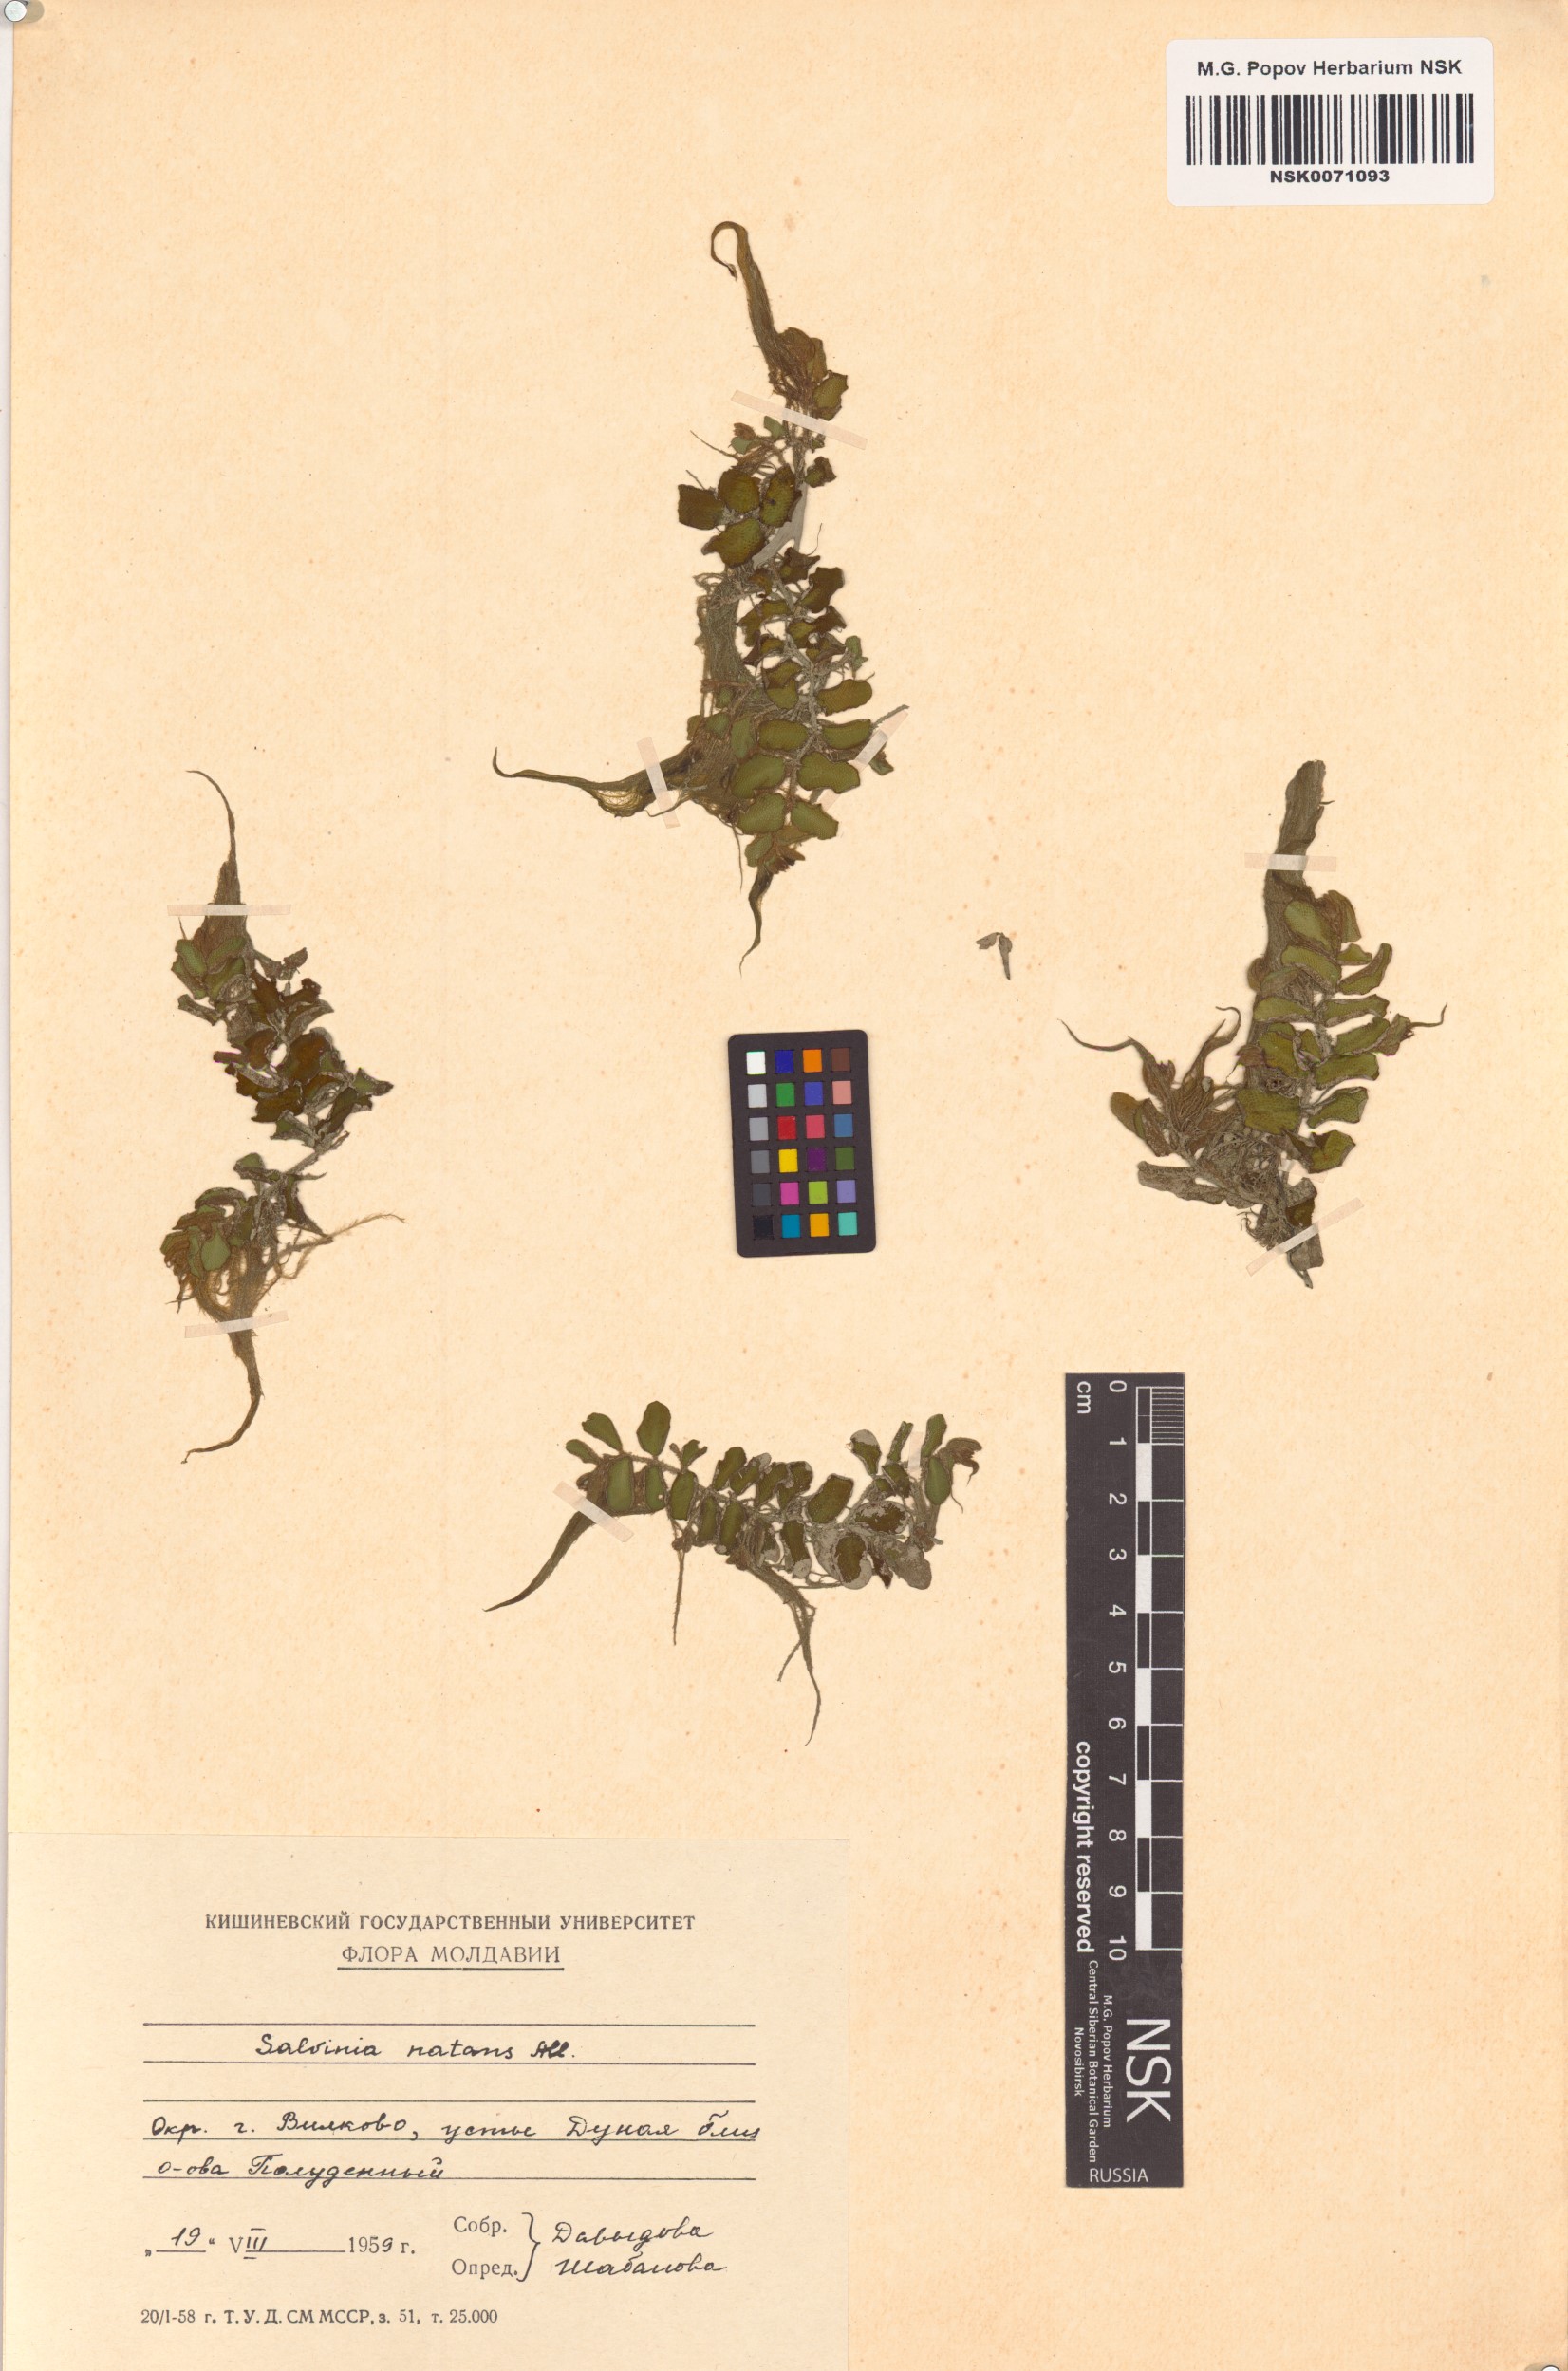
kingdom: Plantae
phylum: Tracheophyta
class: Polypodiopsida
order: Salviniales
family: Salviniaceae
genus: Salvinia
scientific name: Salvinia natans
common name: Floating fern
